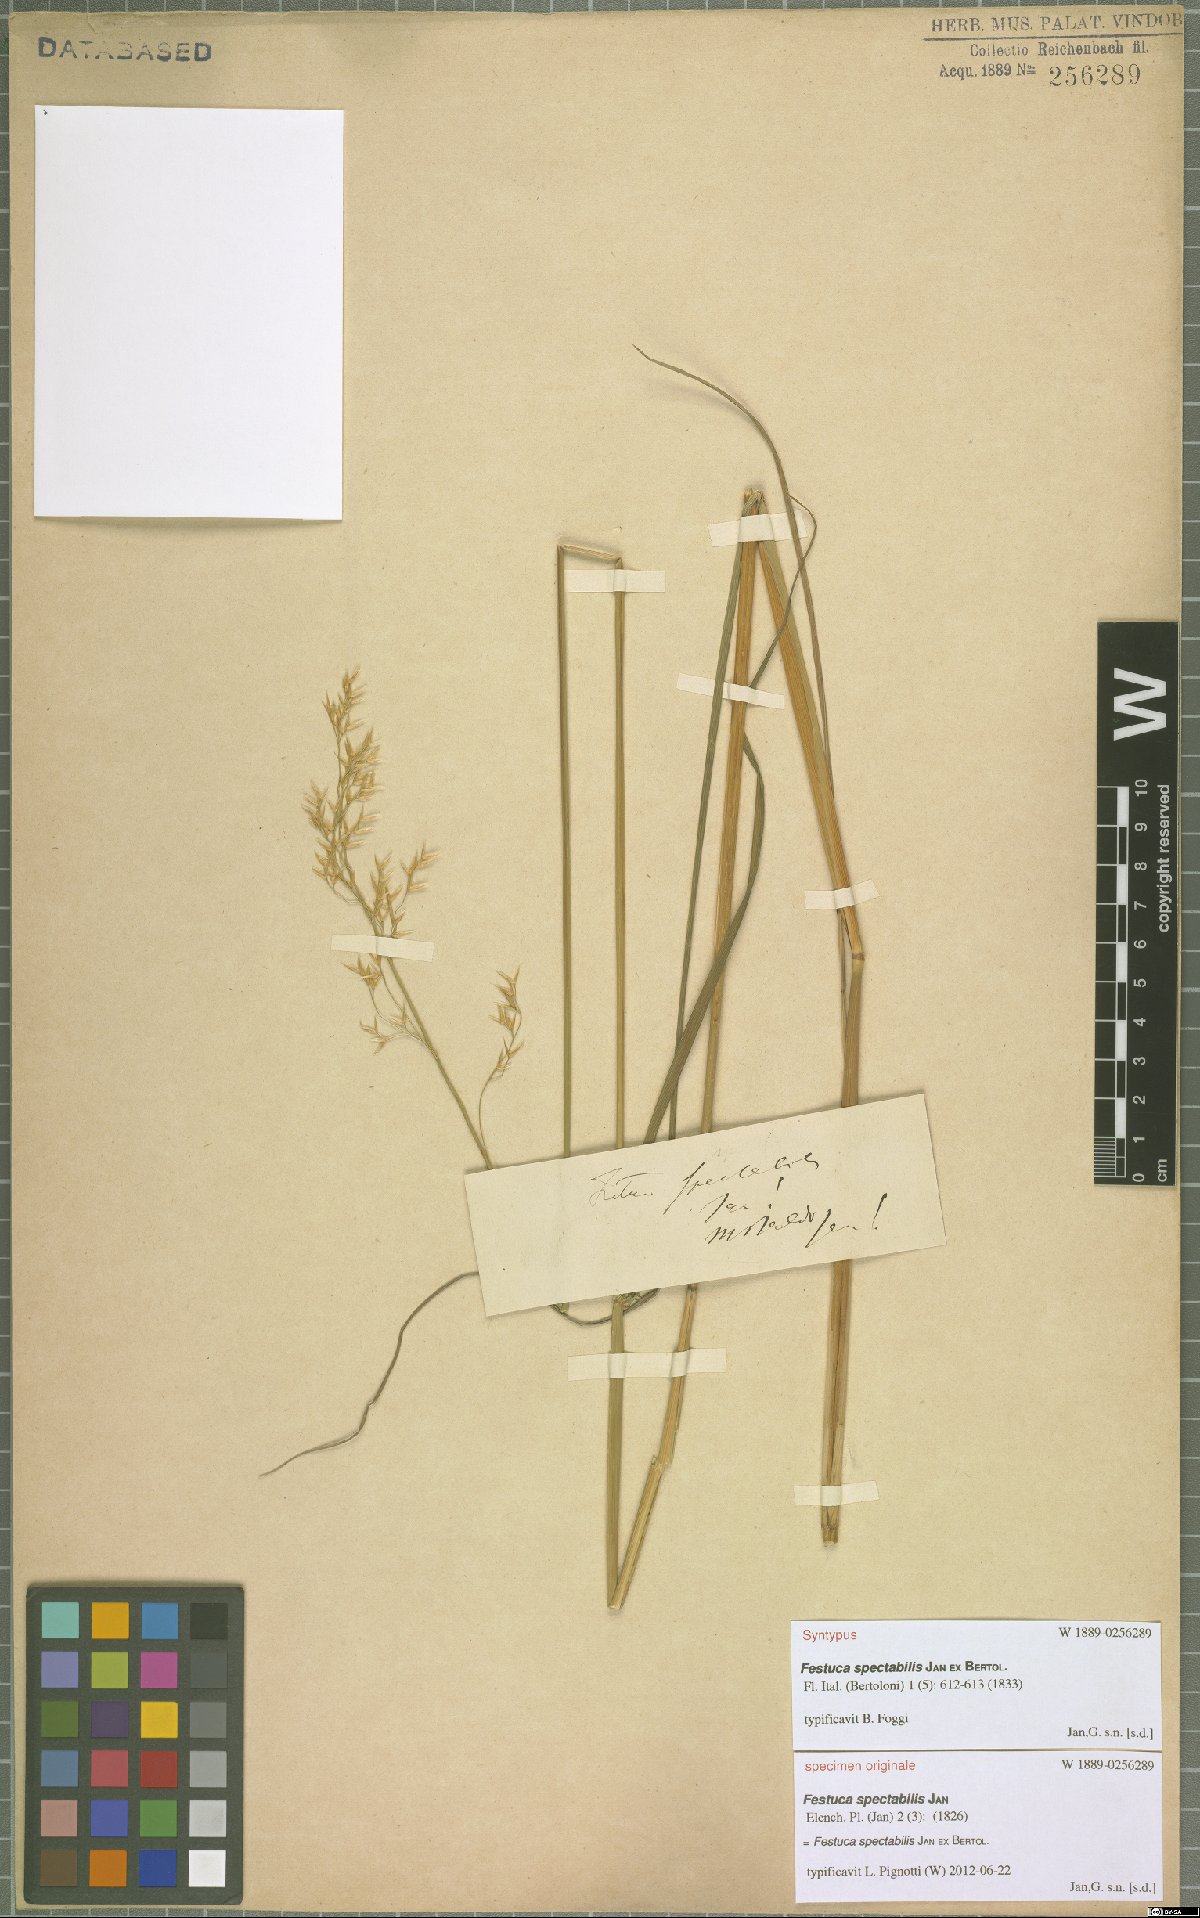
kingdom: Plantae
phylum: Tracheophyta
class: Liliopsida
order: Poales
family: Poaceae
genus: Festuca
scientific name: Festuca spectabilis
